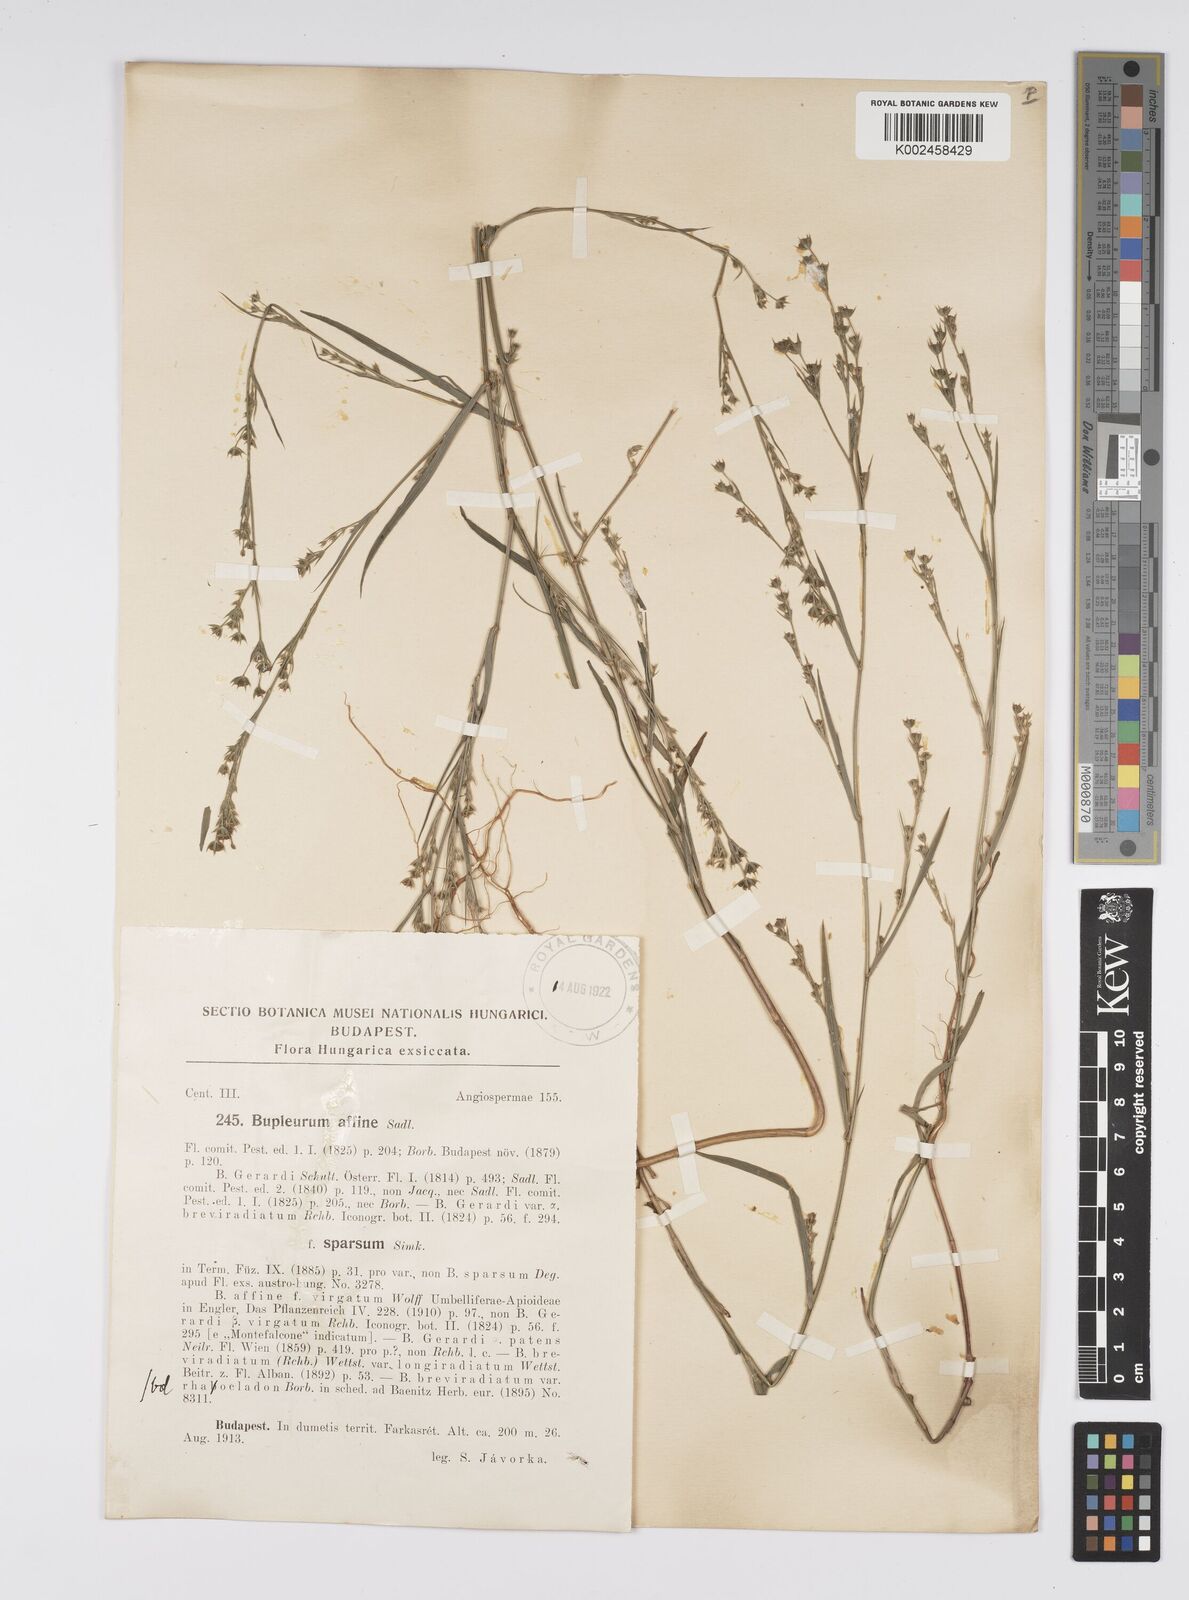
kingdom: Plantae
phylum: Tracheophyta
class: Magnoliopsida
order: Apiales
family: Apiaceae
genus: Bupleurum
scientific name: Bupleurum affine
